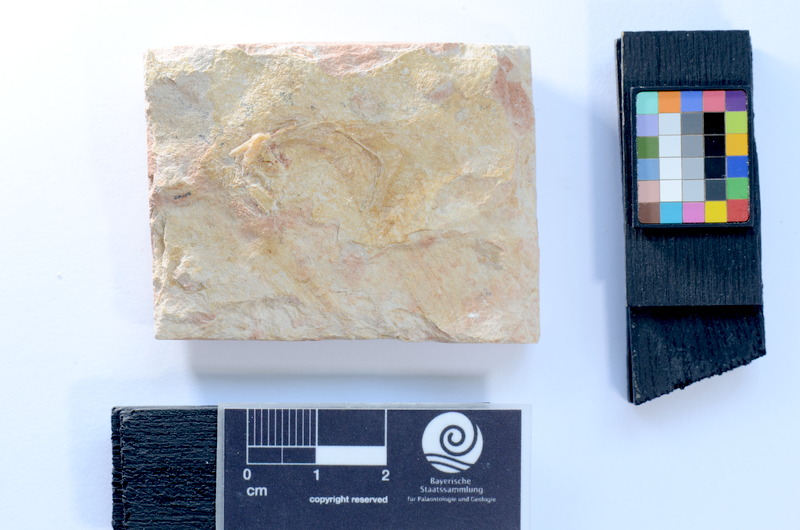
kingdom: Animalia
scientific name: Animalia
